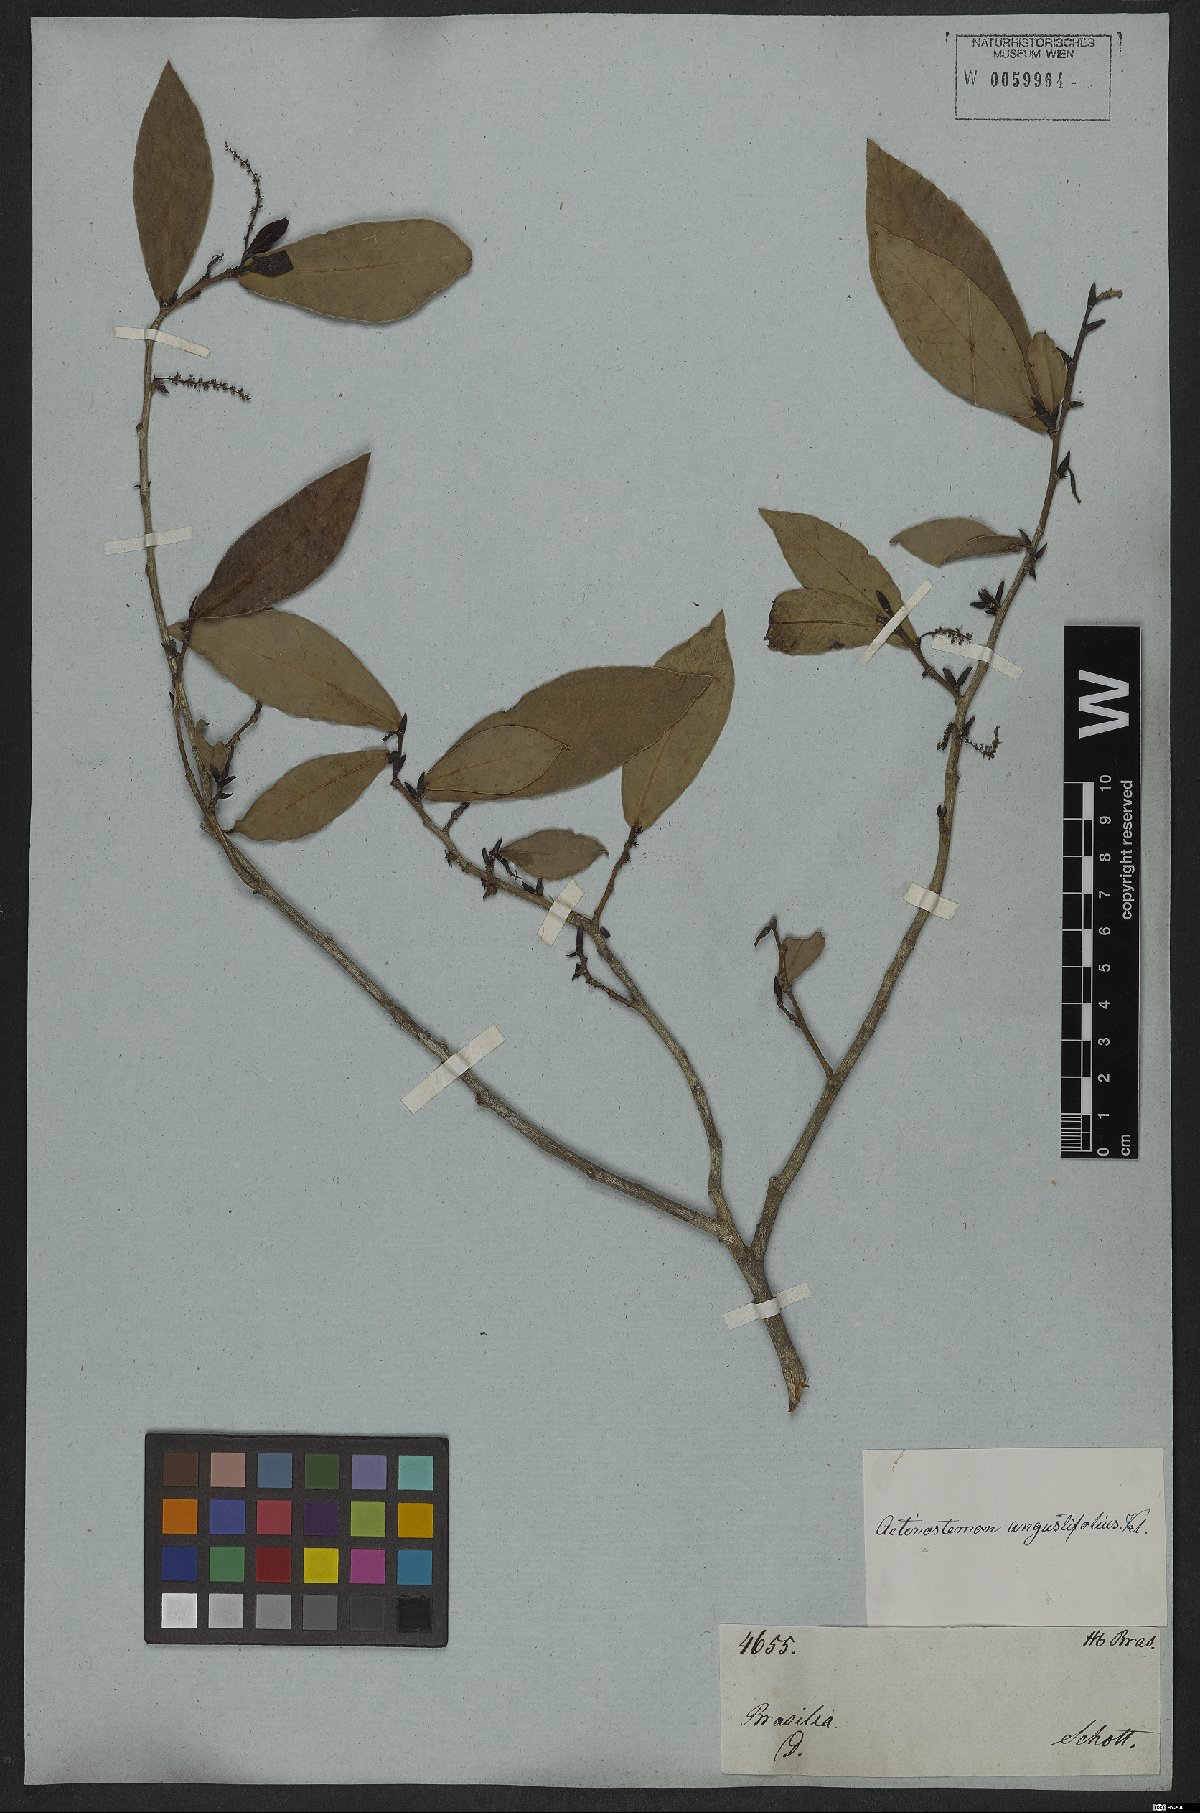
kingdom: Plantae
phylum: Tracheophyta
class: Magnoliopsida
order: Malpighiales
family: Euphorbiaceae
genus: Actinostemon
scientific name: Actinostemon concolor
